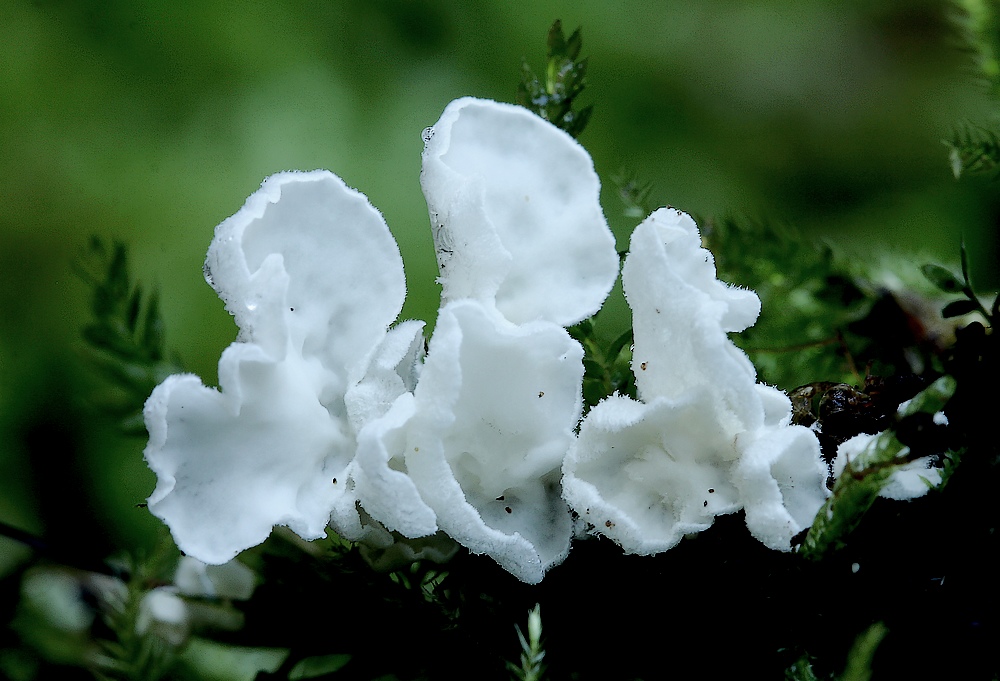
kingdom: Fungi
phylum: Basidiomycota
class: Agaricomycetes
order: Agaricales
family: Tricholomataceae
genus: Rimbachia
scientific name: Rimbachia arachnoidea
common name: Almindelig mosskål
